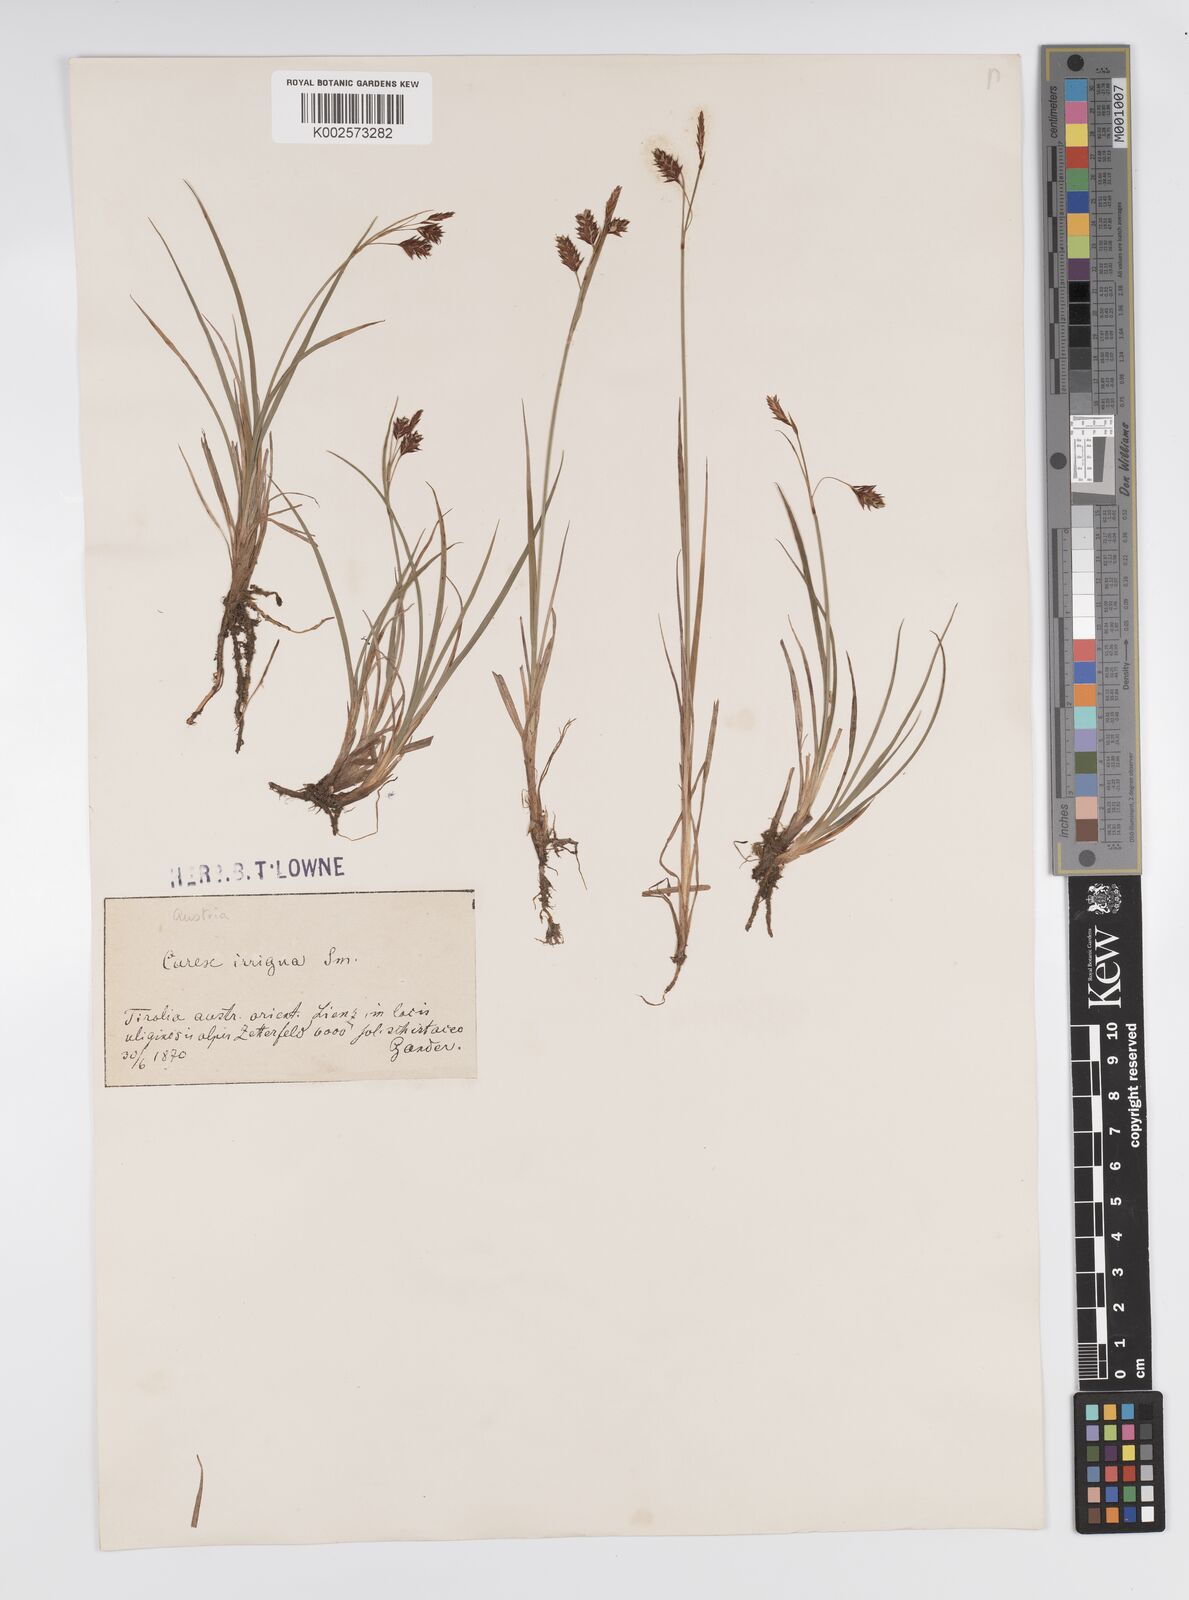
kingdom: Plantae
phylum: Tracheophyta
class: Liliopsida
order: Poales
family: Cyperaceae
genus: Carex
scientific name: Carex magellanica
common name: Bog sedge
